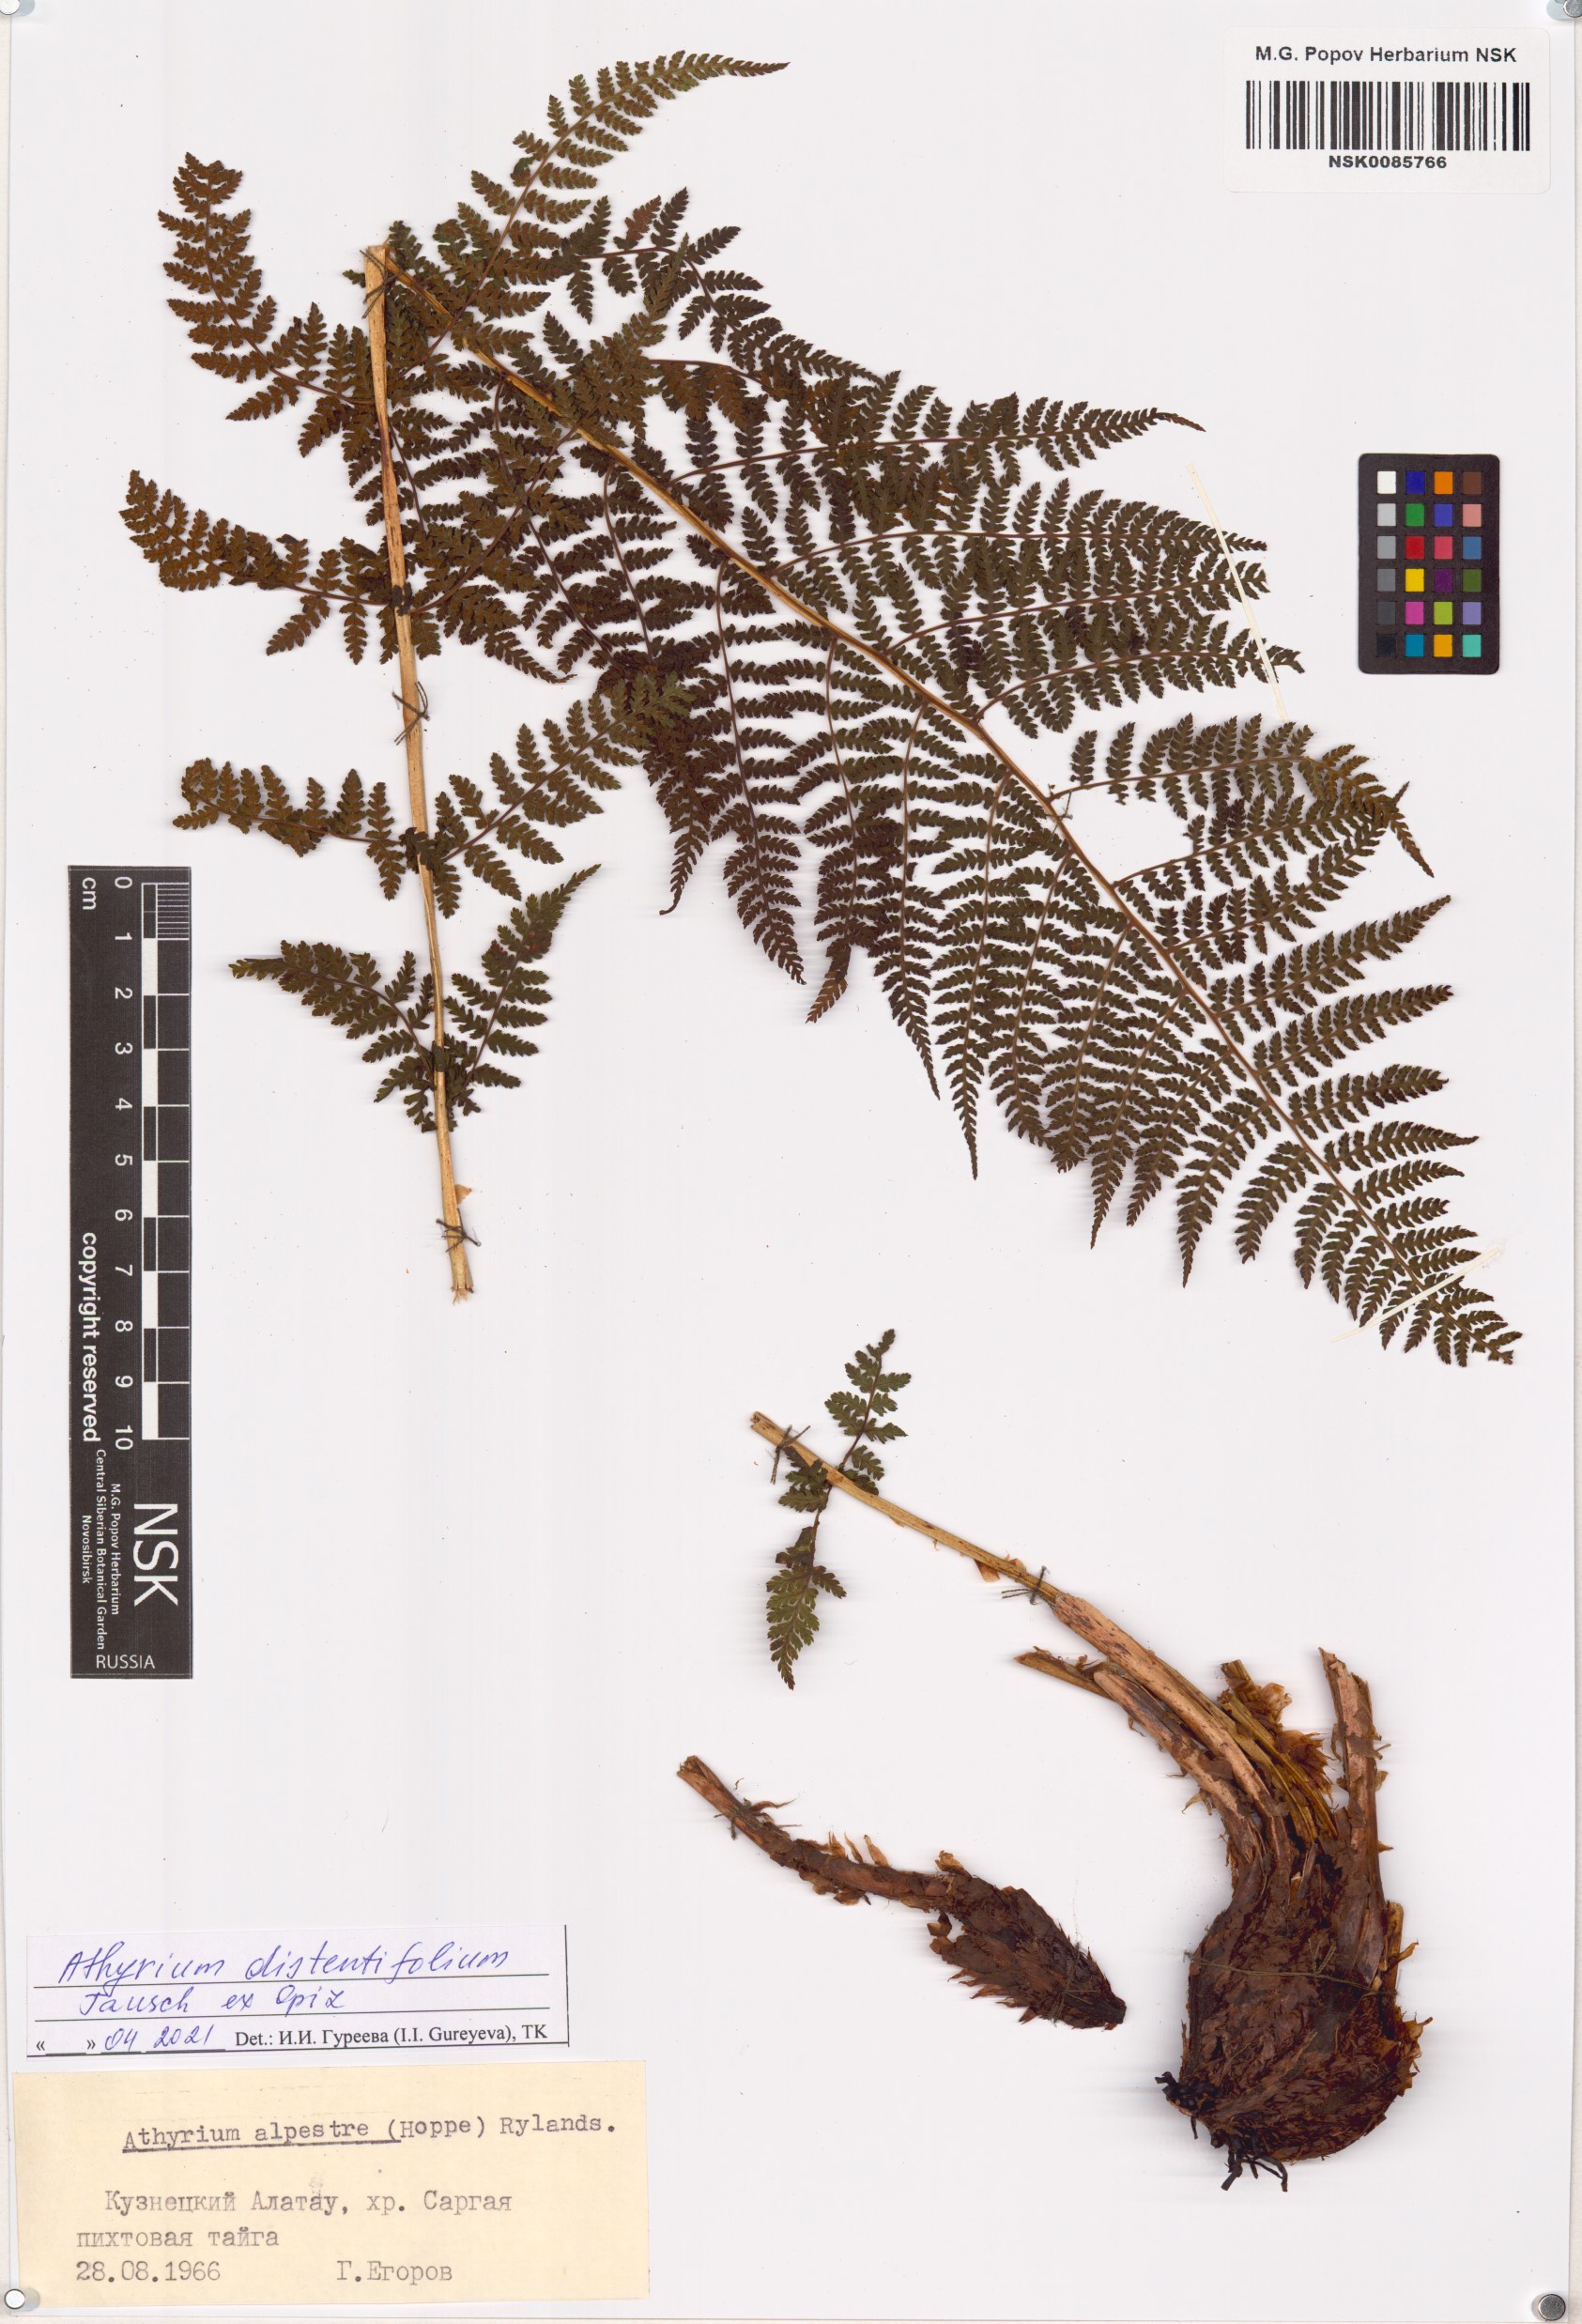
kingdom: Plantae
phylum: Tracheophyta
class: Polypodiopsida
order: Polypodiales
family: Athyriaceae
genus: Pseudathyrium
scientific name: Pseudathyrium alpestre
